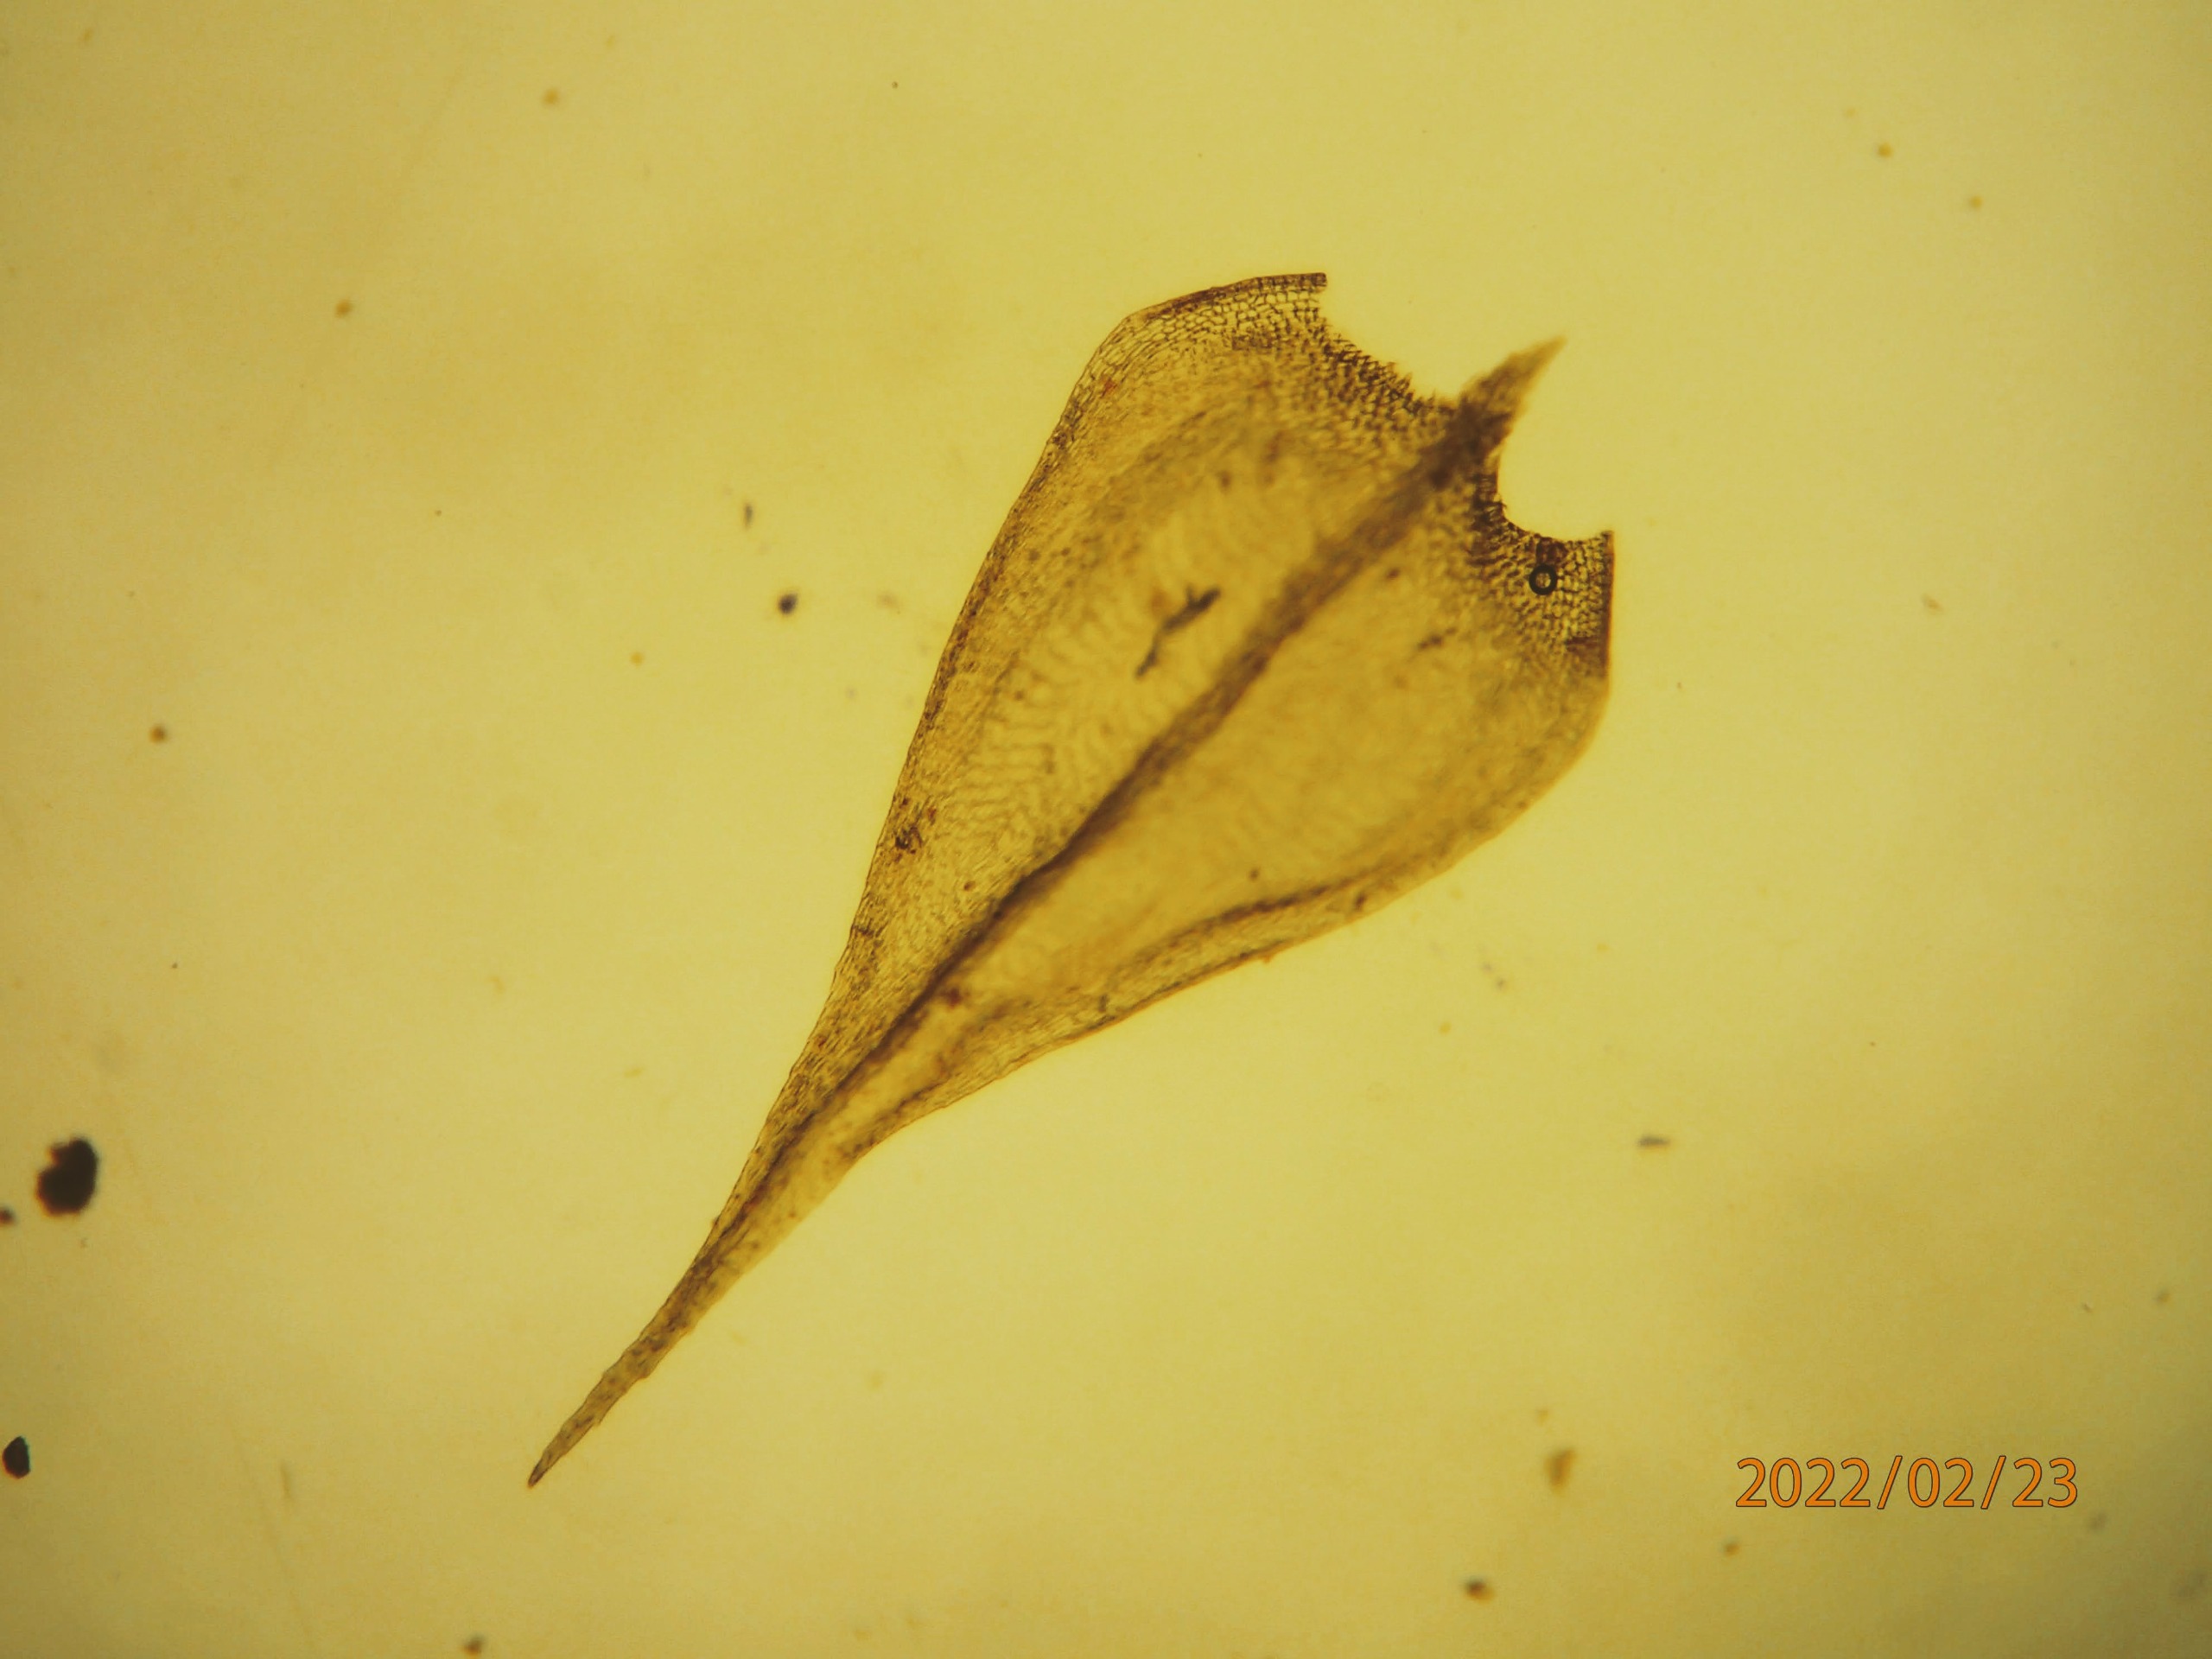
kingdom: Plantae
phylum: Bryophyta
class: Bryopsida
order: Hypnales
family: Brachytheciaceae
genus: Sciuro-hypnum
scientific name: Sciuro-hypnum populeum
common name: Park-kortkapsel
